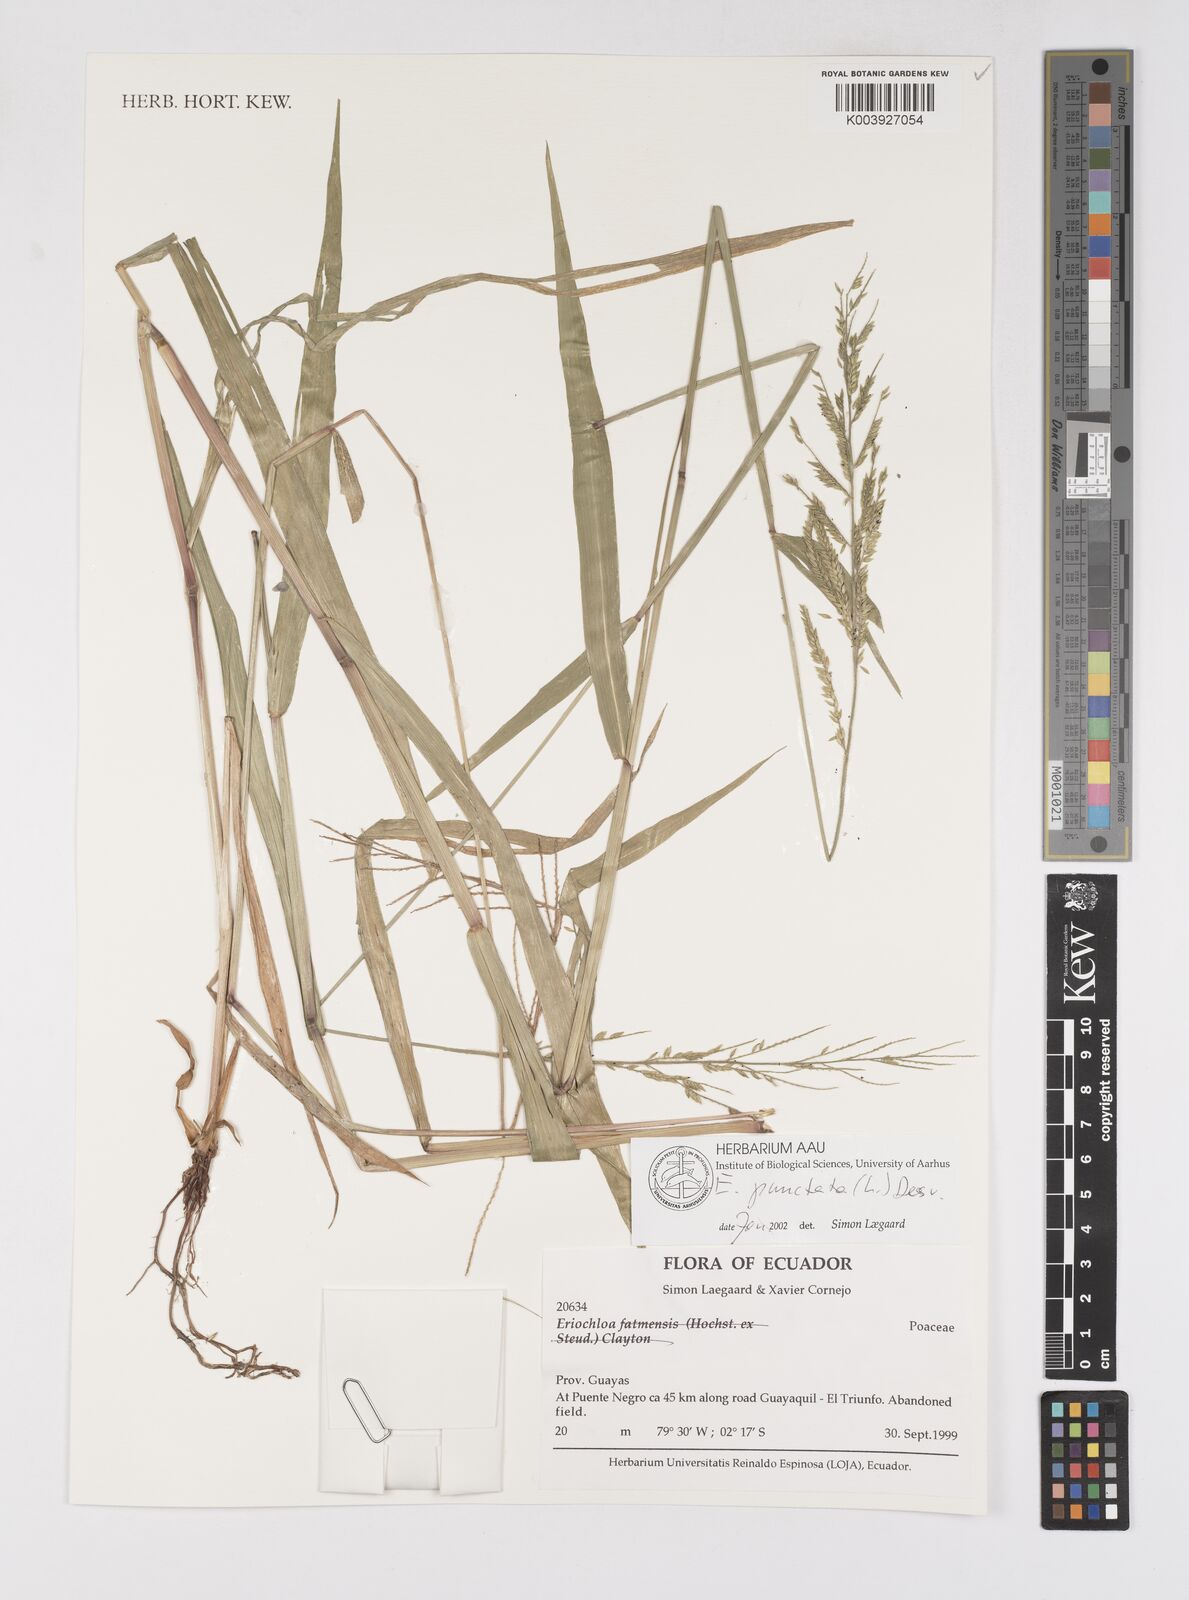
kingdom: Plantae
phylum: Tracheophyta
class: Liliopsida
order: Poales
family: Poaceae
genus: Eriochloa
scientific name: Eriochloa punctata
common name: Louisiana cupgrass
